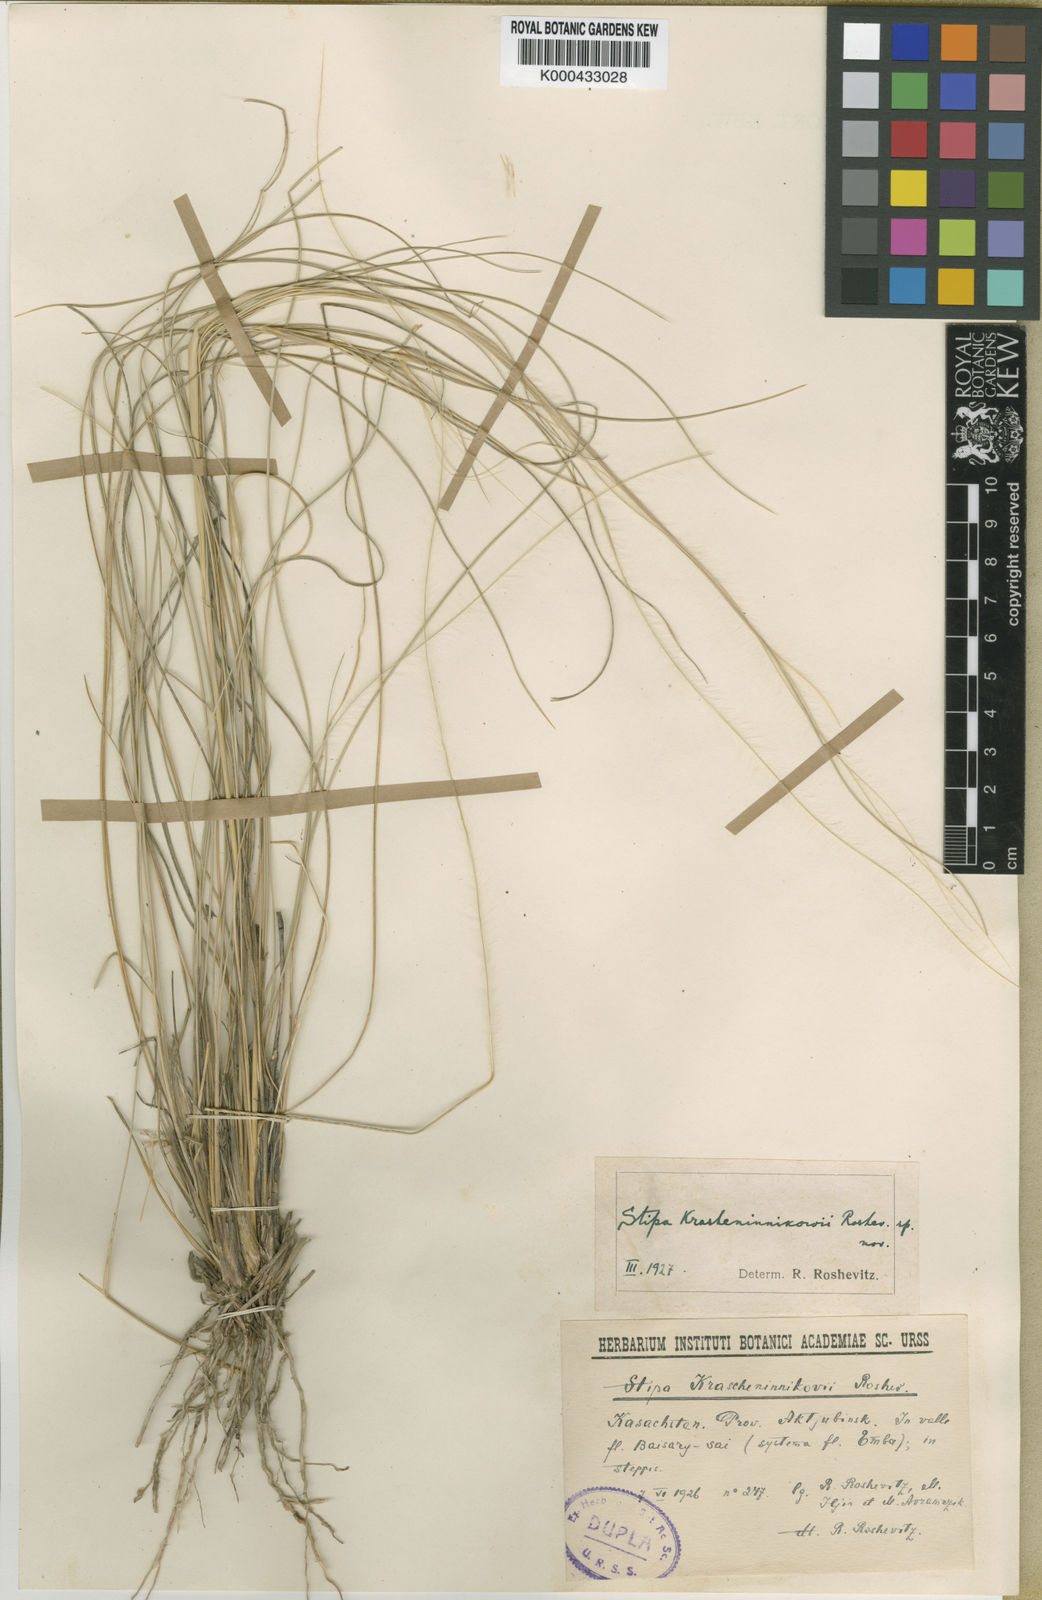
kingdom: Plantae
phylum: Tracheophyta
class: Liliopsida
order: Poales
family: Poaceae
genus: Stipa
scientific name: Stipa
